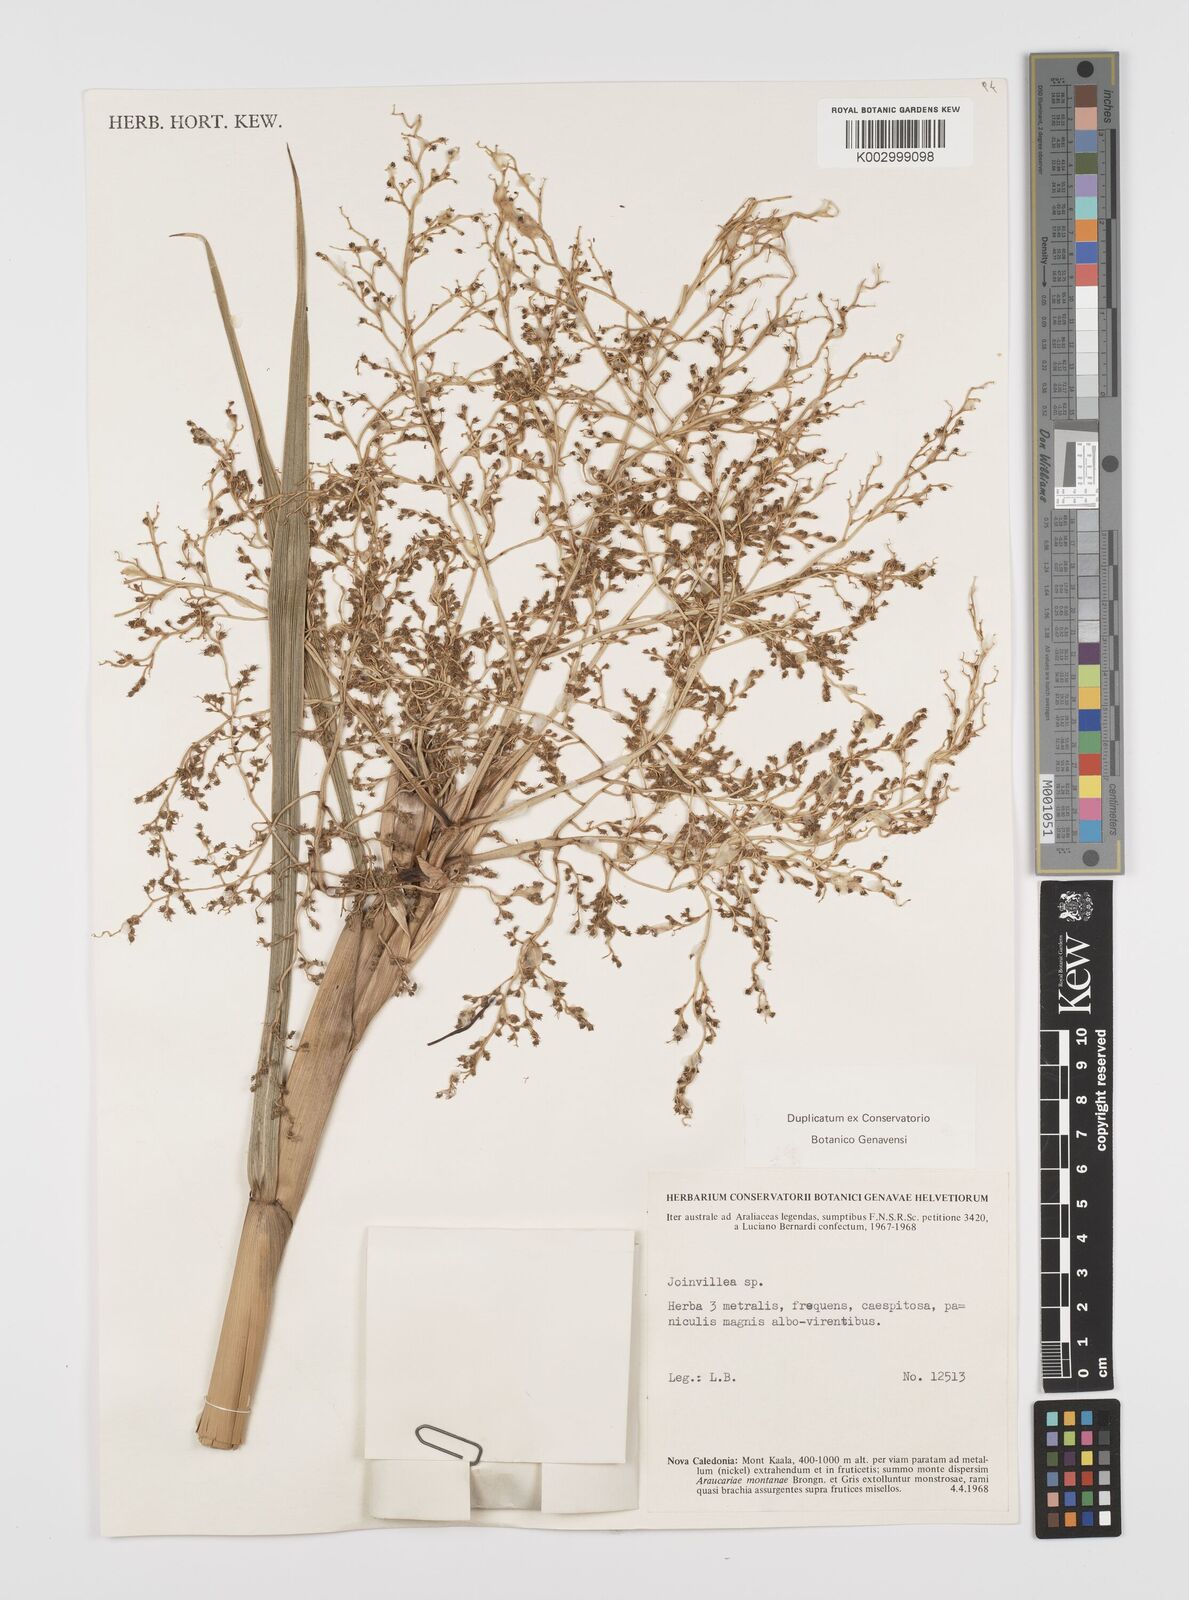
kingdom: Plantae
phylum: Tracheophyta
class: Liliopsida
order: Poales
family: Joinvilleaceae
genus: Joinvillea
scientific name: Joinvillea
